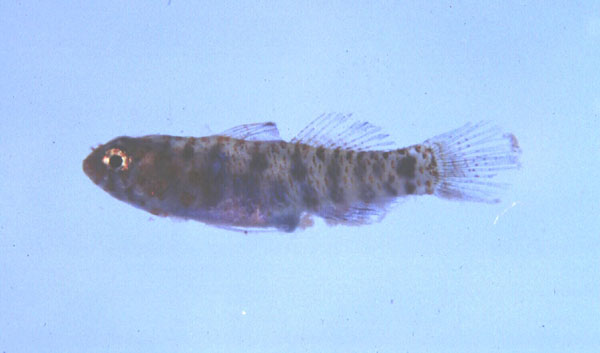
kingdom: Animalia
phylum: Chordata
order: Perciformes
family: Gobiidae
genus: Eviota
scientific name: Eviota prasites
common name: Hairfin eviota
